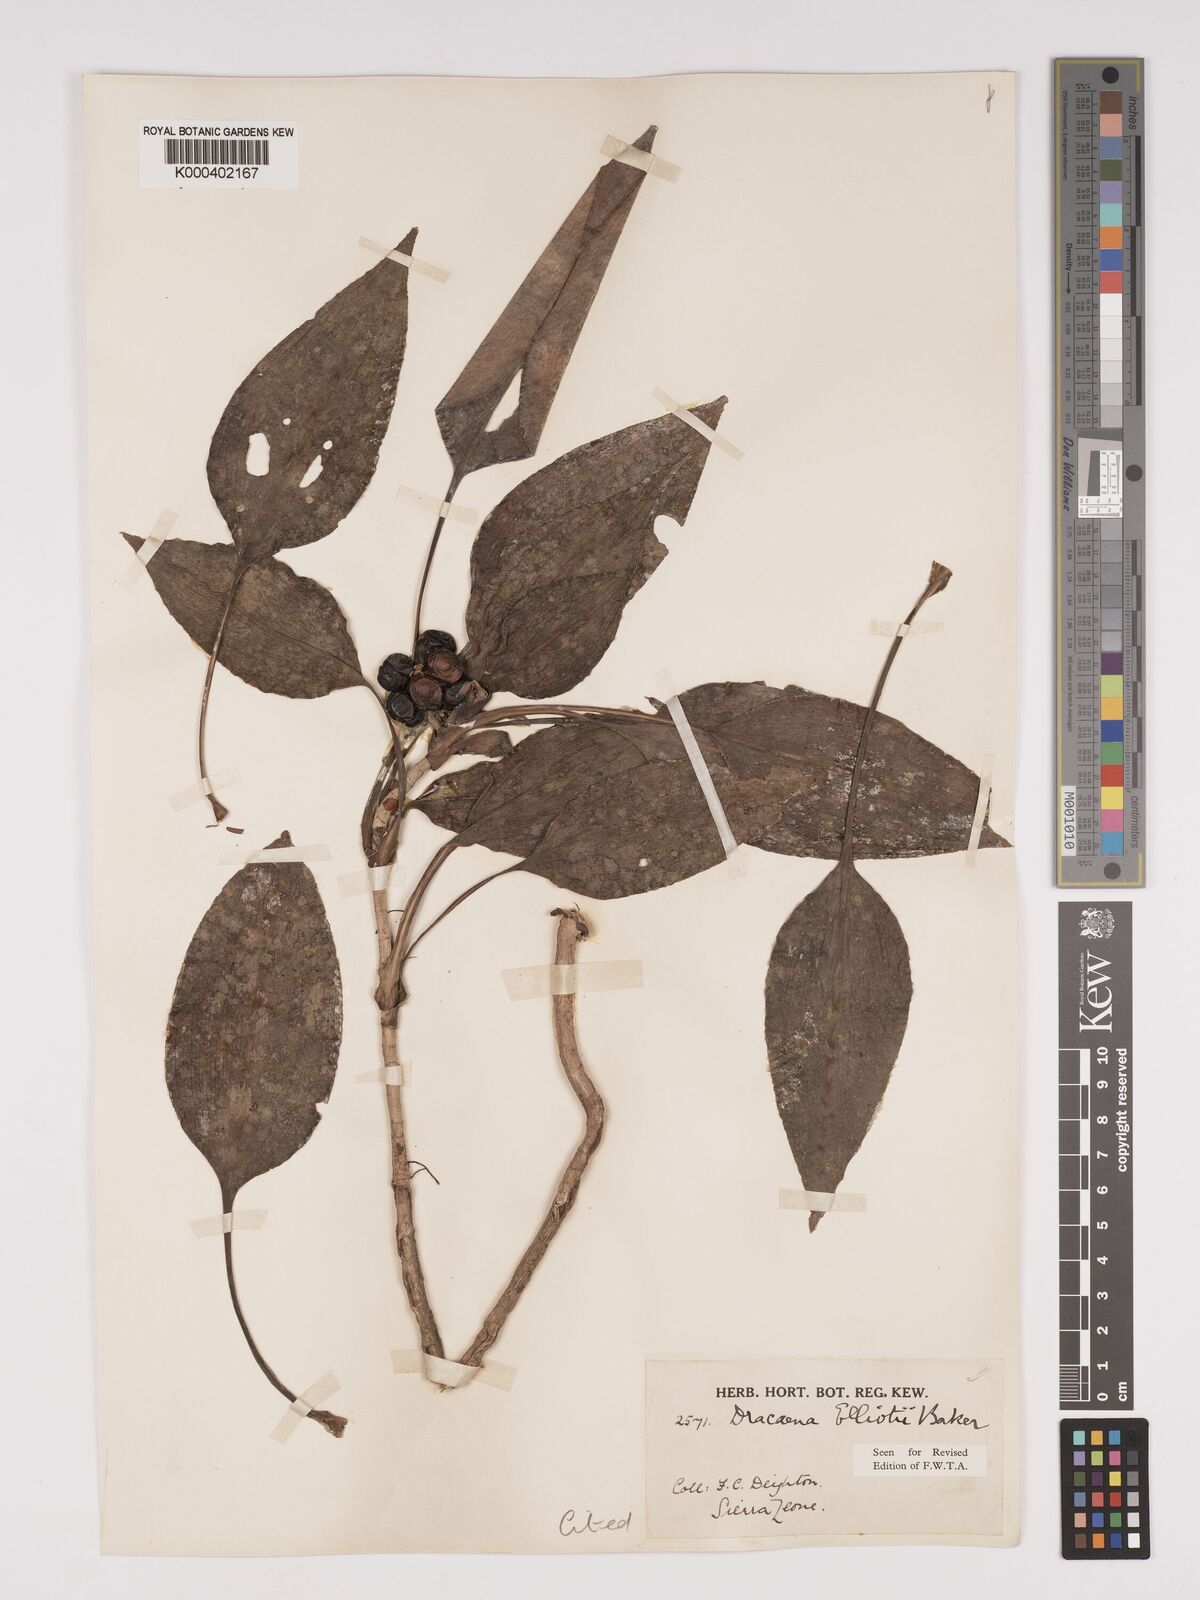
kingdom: Plantae
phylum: Tracheophyta
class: Liliopsida
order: Asparagales
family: Asparagaceae
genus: Dracaena
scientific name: Dracaena cristula
